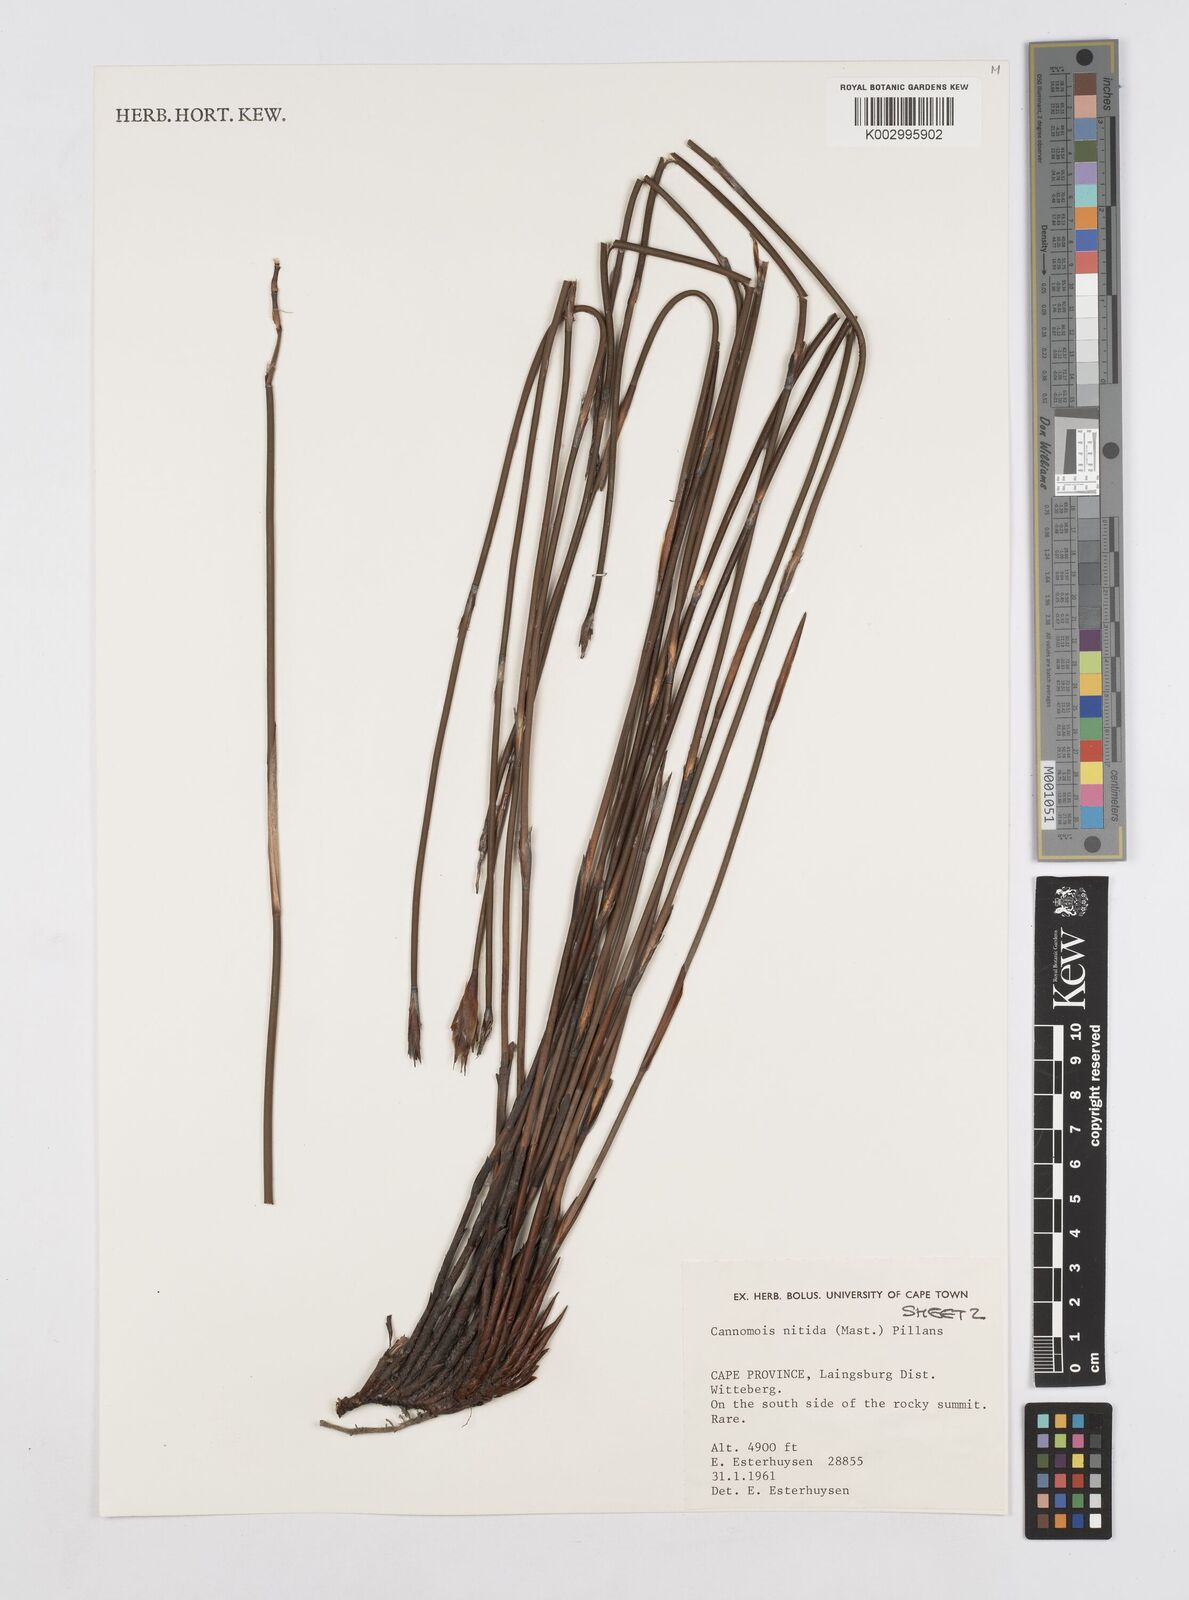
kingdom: Plantae
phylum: Tracheophyta
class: Liliopsida
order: Poales
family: Restionaceae
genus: Cannomois
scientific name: Cannomois nitida
